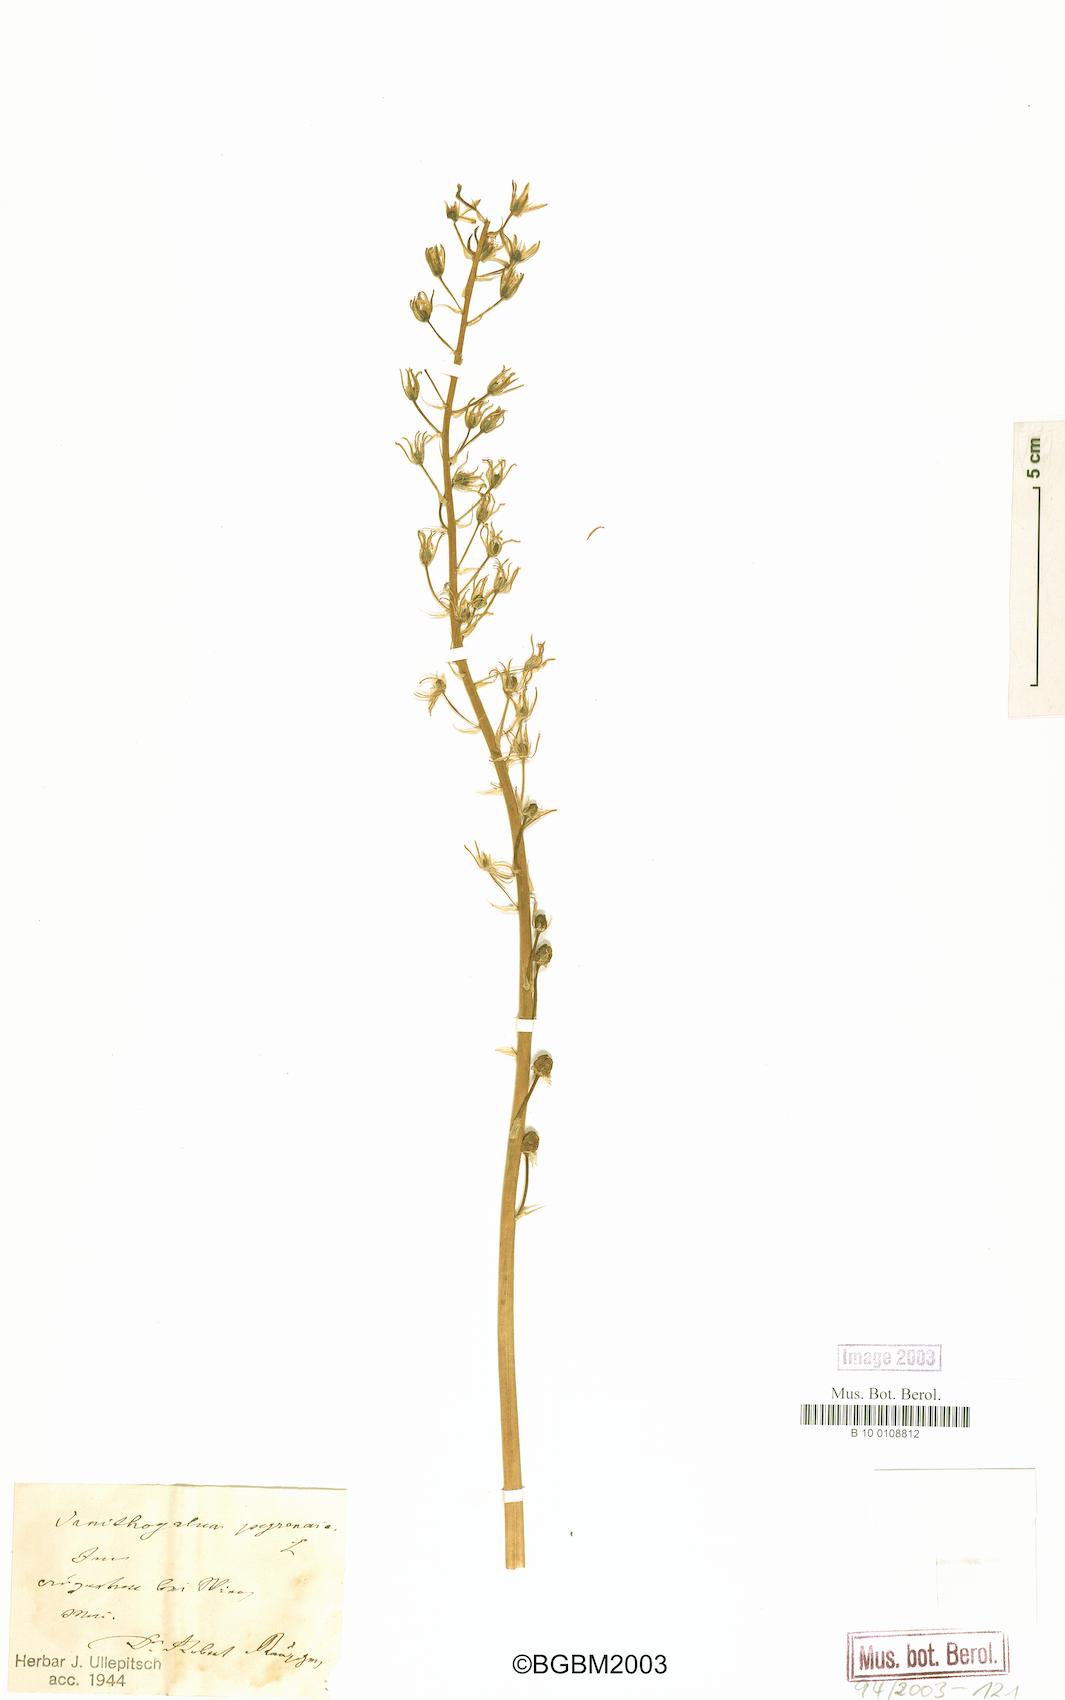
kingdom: Plantae
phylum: Tracheophyta
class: Liliopsida
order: Asparagales
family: Asparagaceae
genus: Ornithogalum
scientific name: Ornithogalum pyrenaicum
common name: Spiked star-of-bethlehem
